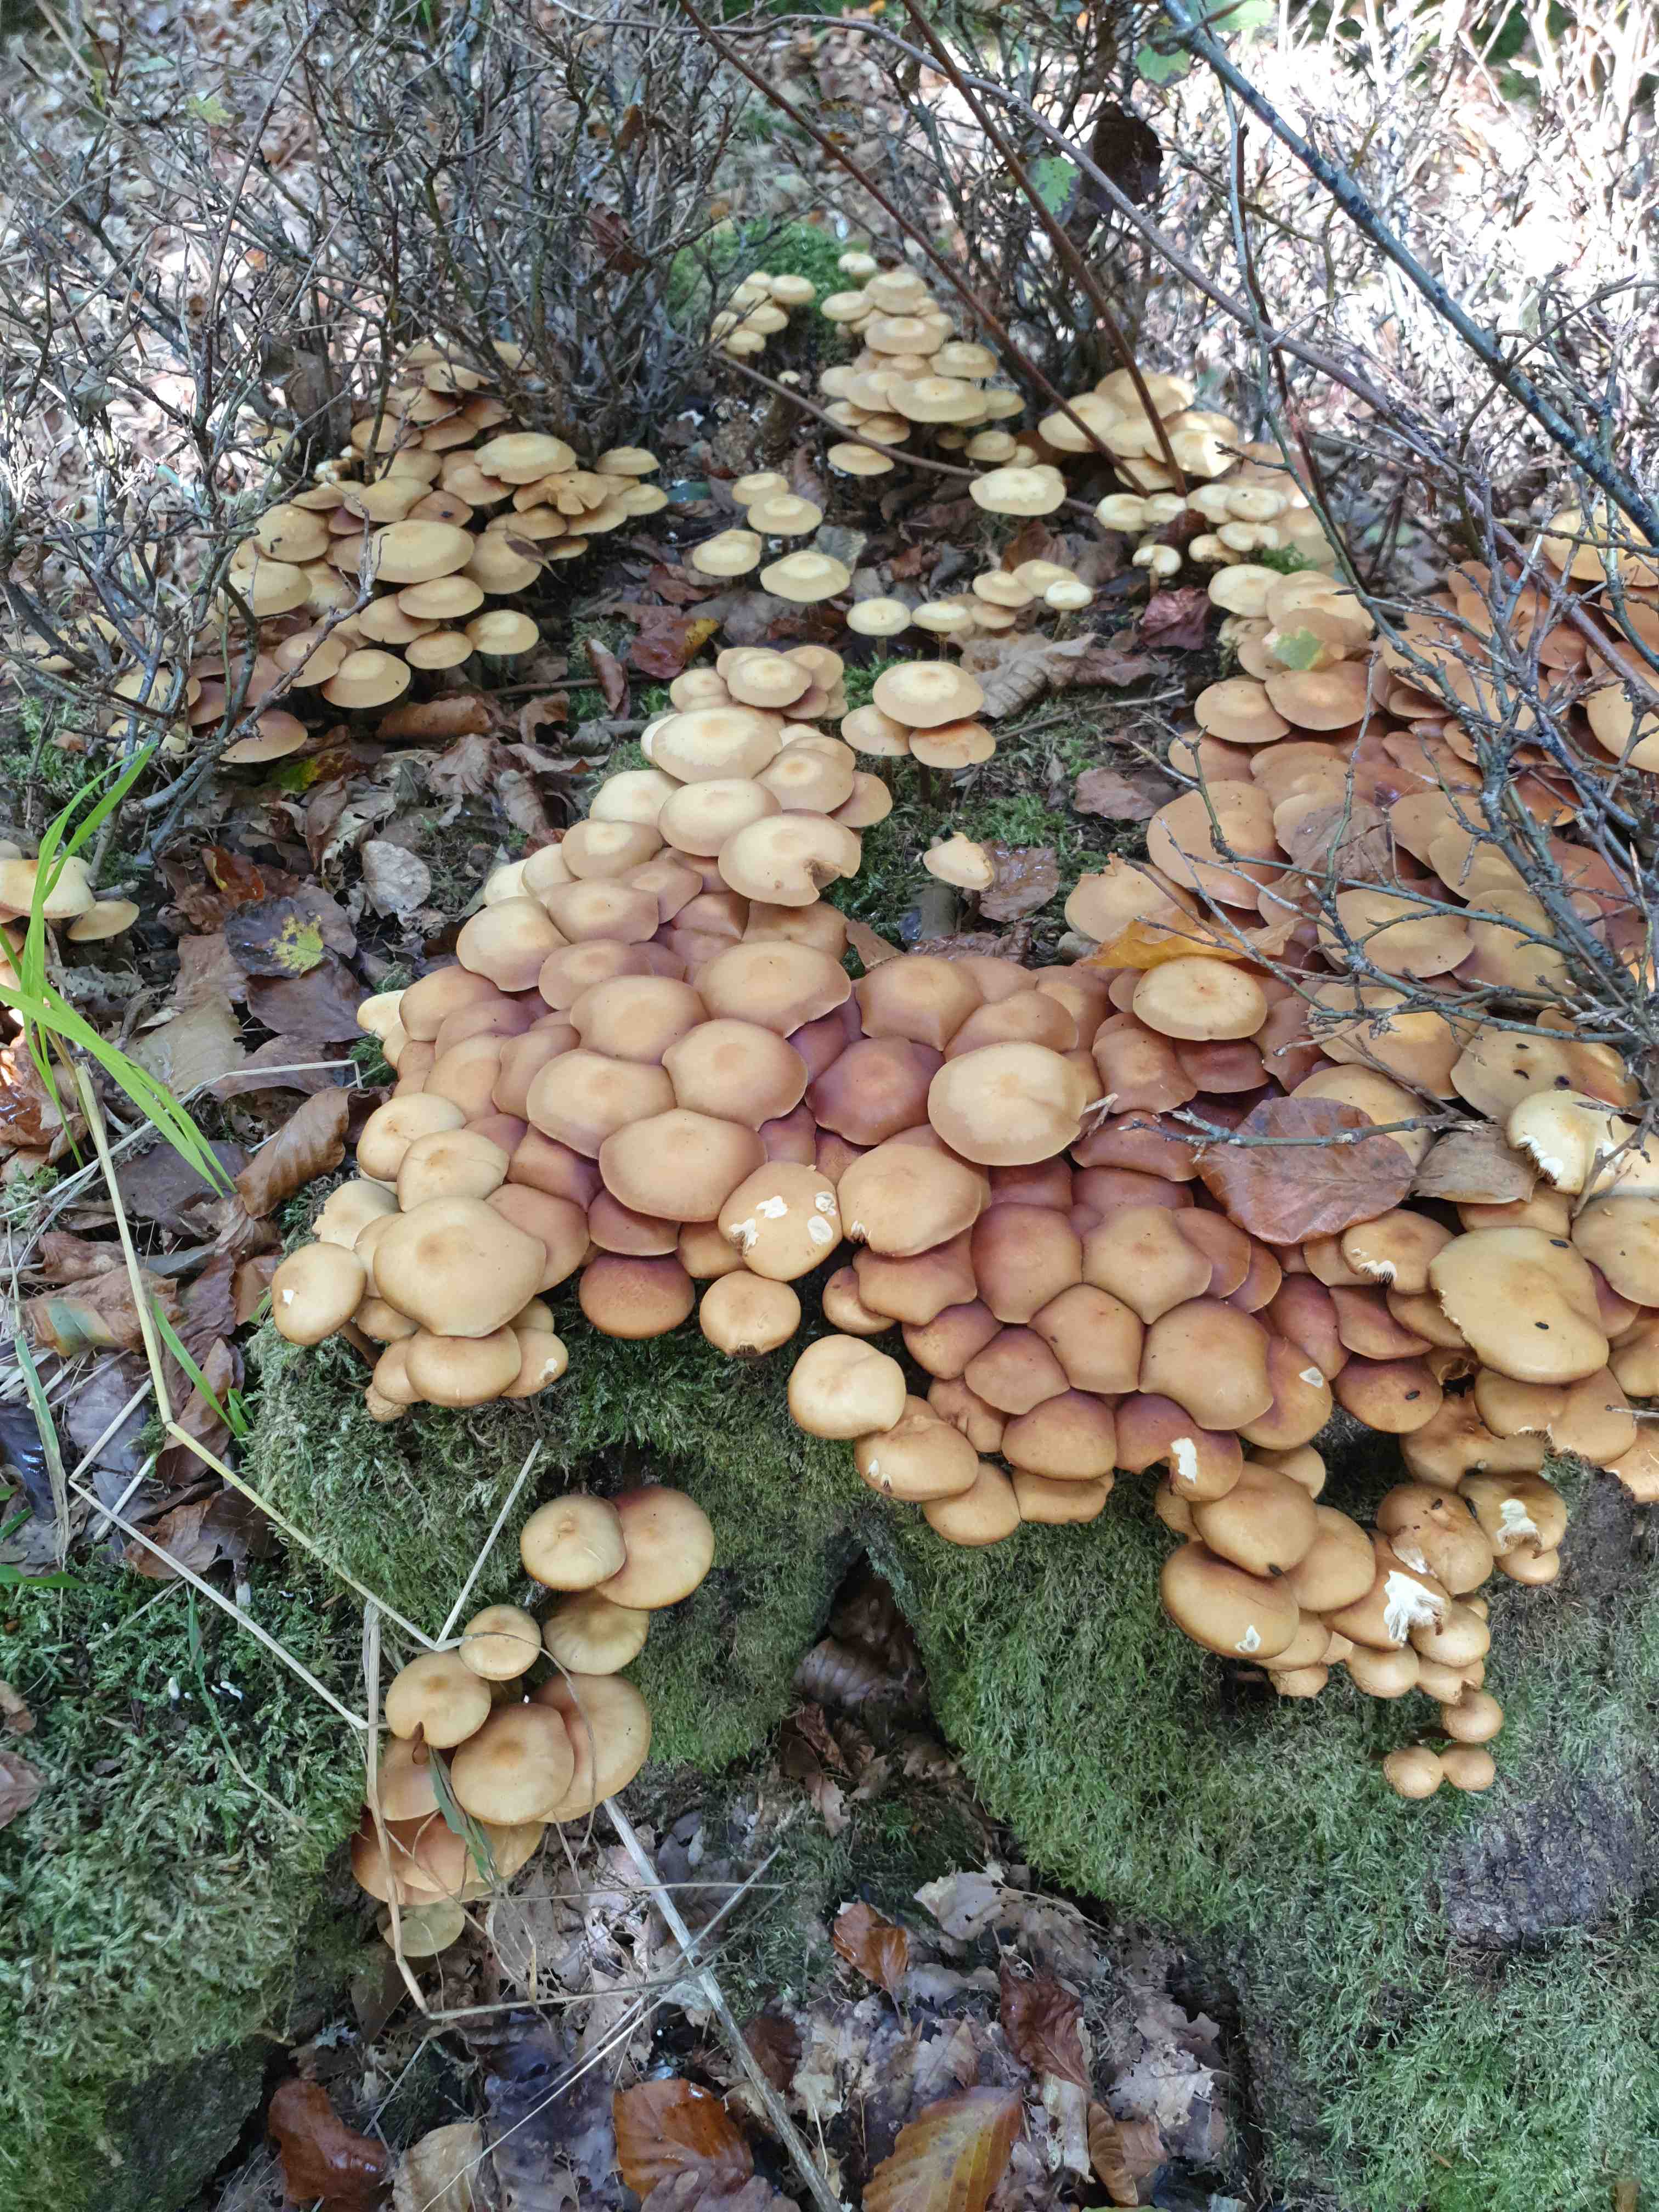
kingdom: Fungi
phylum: Basidiomycota
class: Agaricomycetes
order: Agaricales
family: Strophariaceae
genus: Kuehneromyces
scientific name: Kuehneromyces mutabilis
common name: foranderlig skælhat
